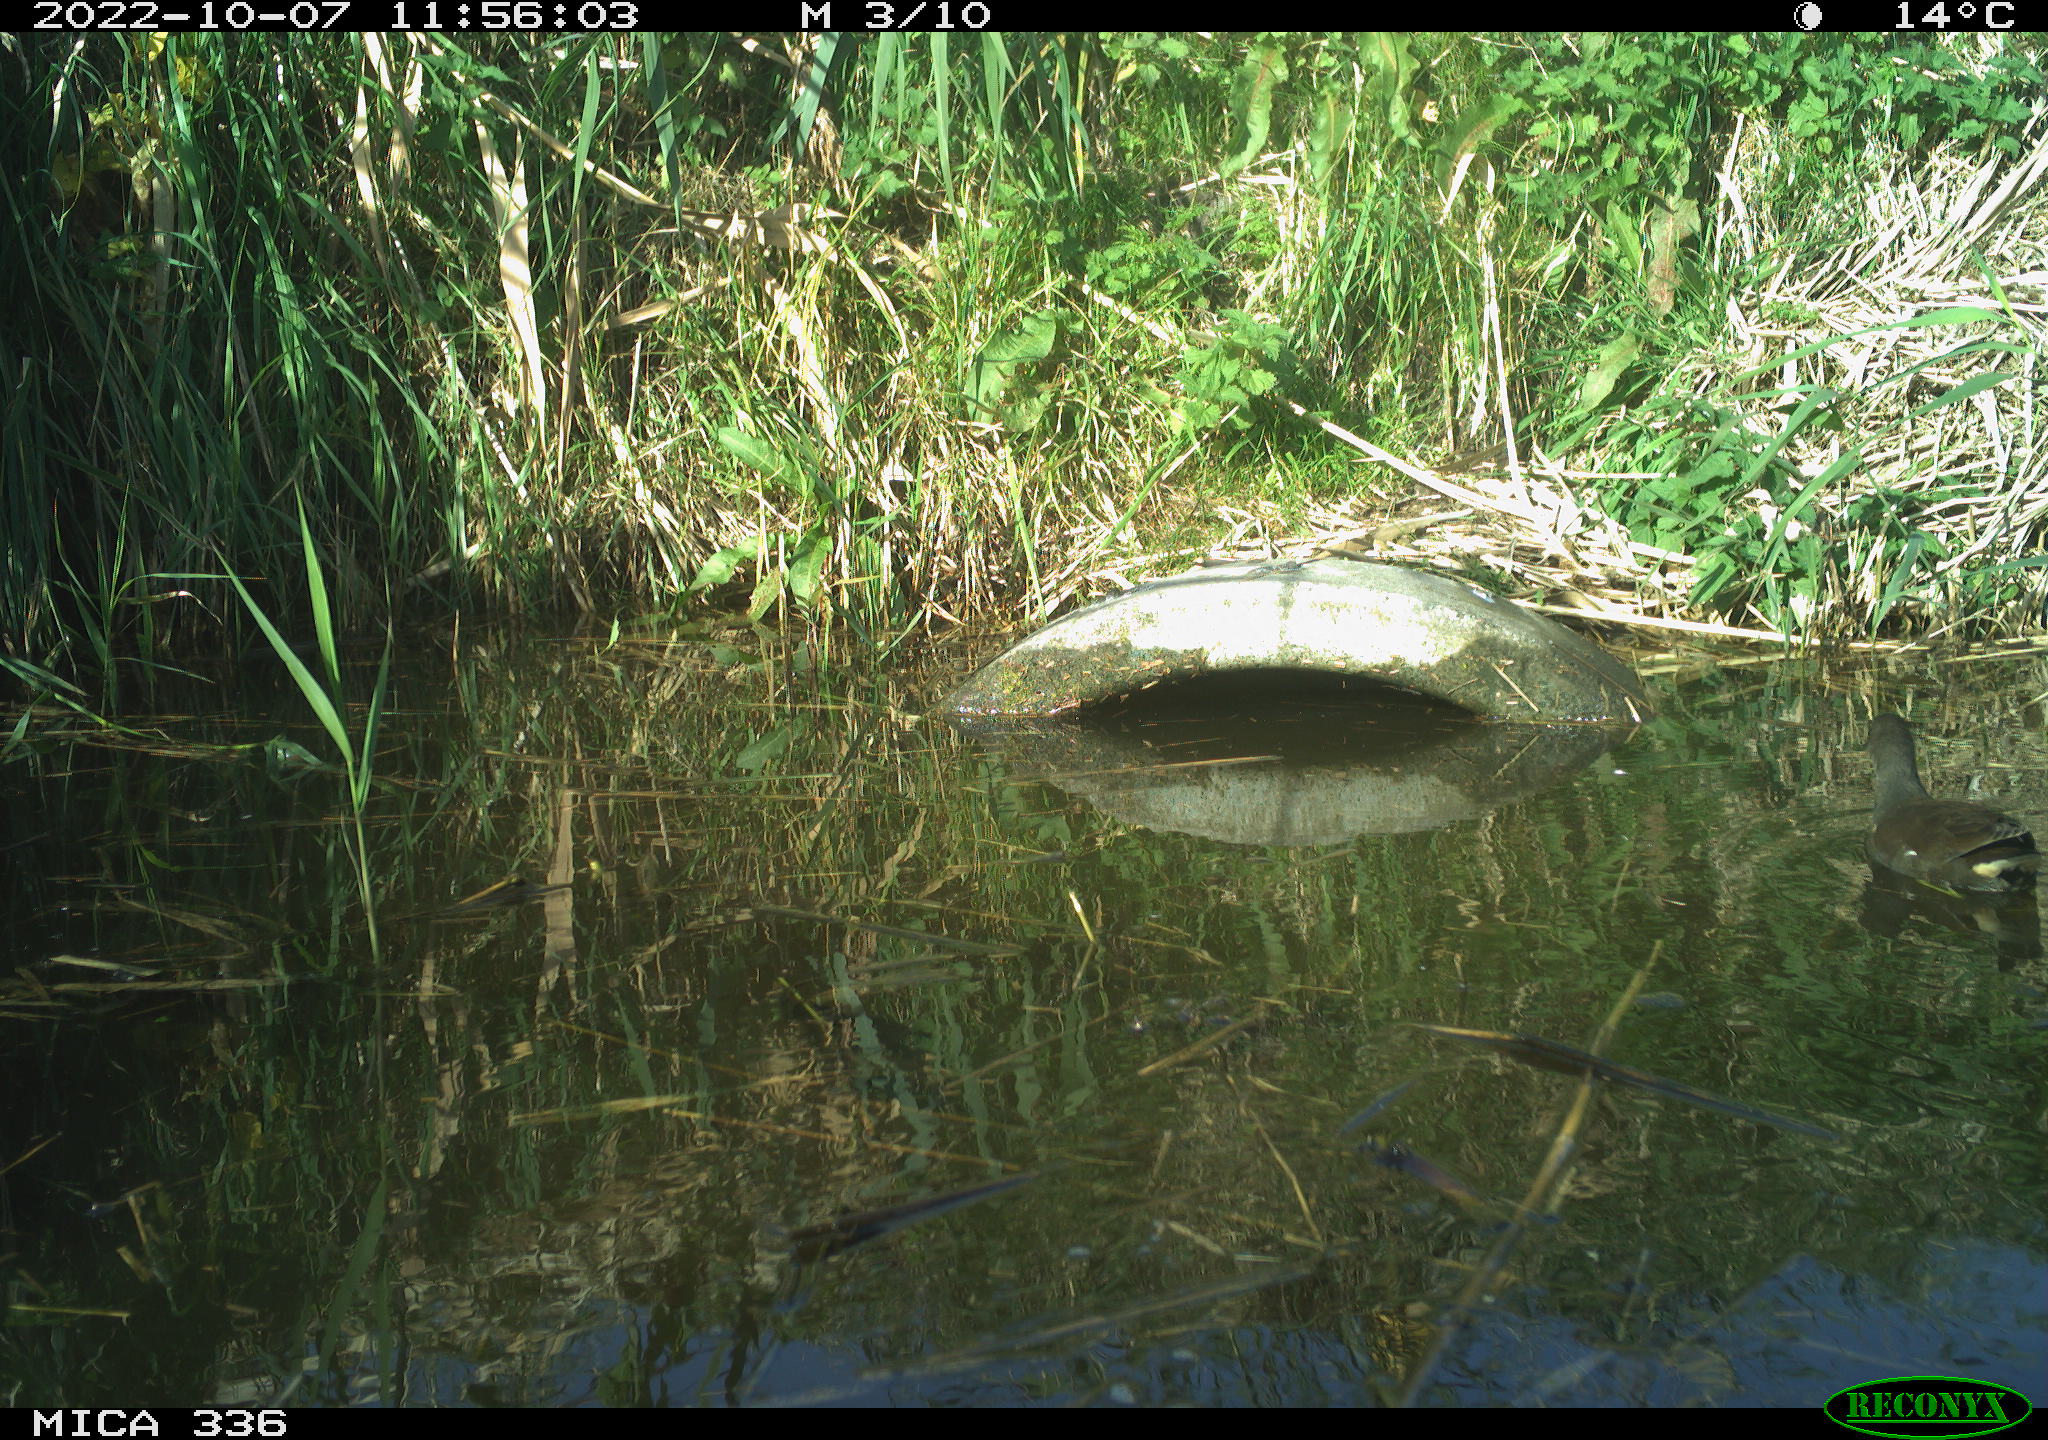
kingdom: Animalia
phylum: Chordata
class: Aves
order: Gruiformes
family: Rallidae
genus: Gallinula
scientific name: Gallinula chloropus
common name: Common moorhen
